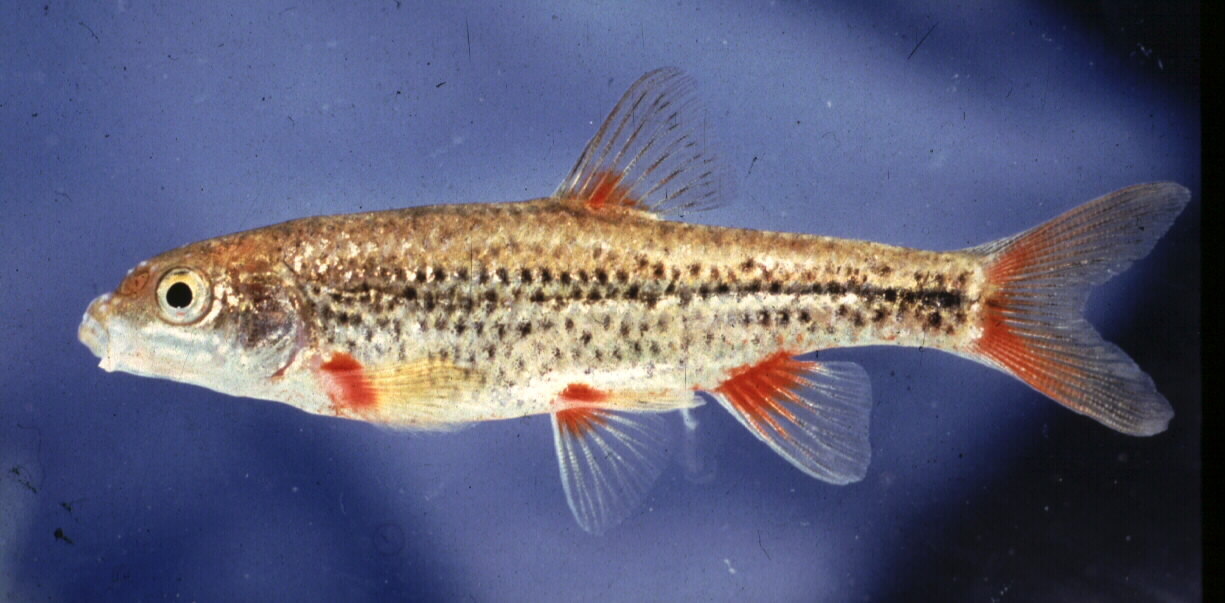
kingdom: Animalia
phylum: Chordata
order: Cypriniformes
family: Cyprinidae
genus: Pseudobarbus
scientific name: Pseudobarbus phlegethon
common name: Fiery redfin
